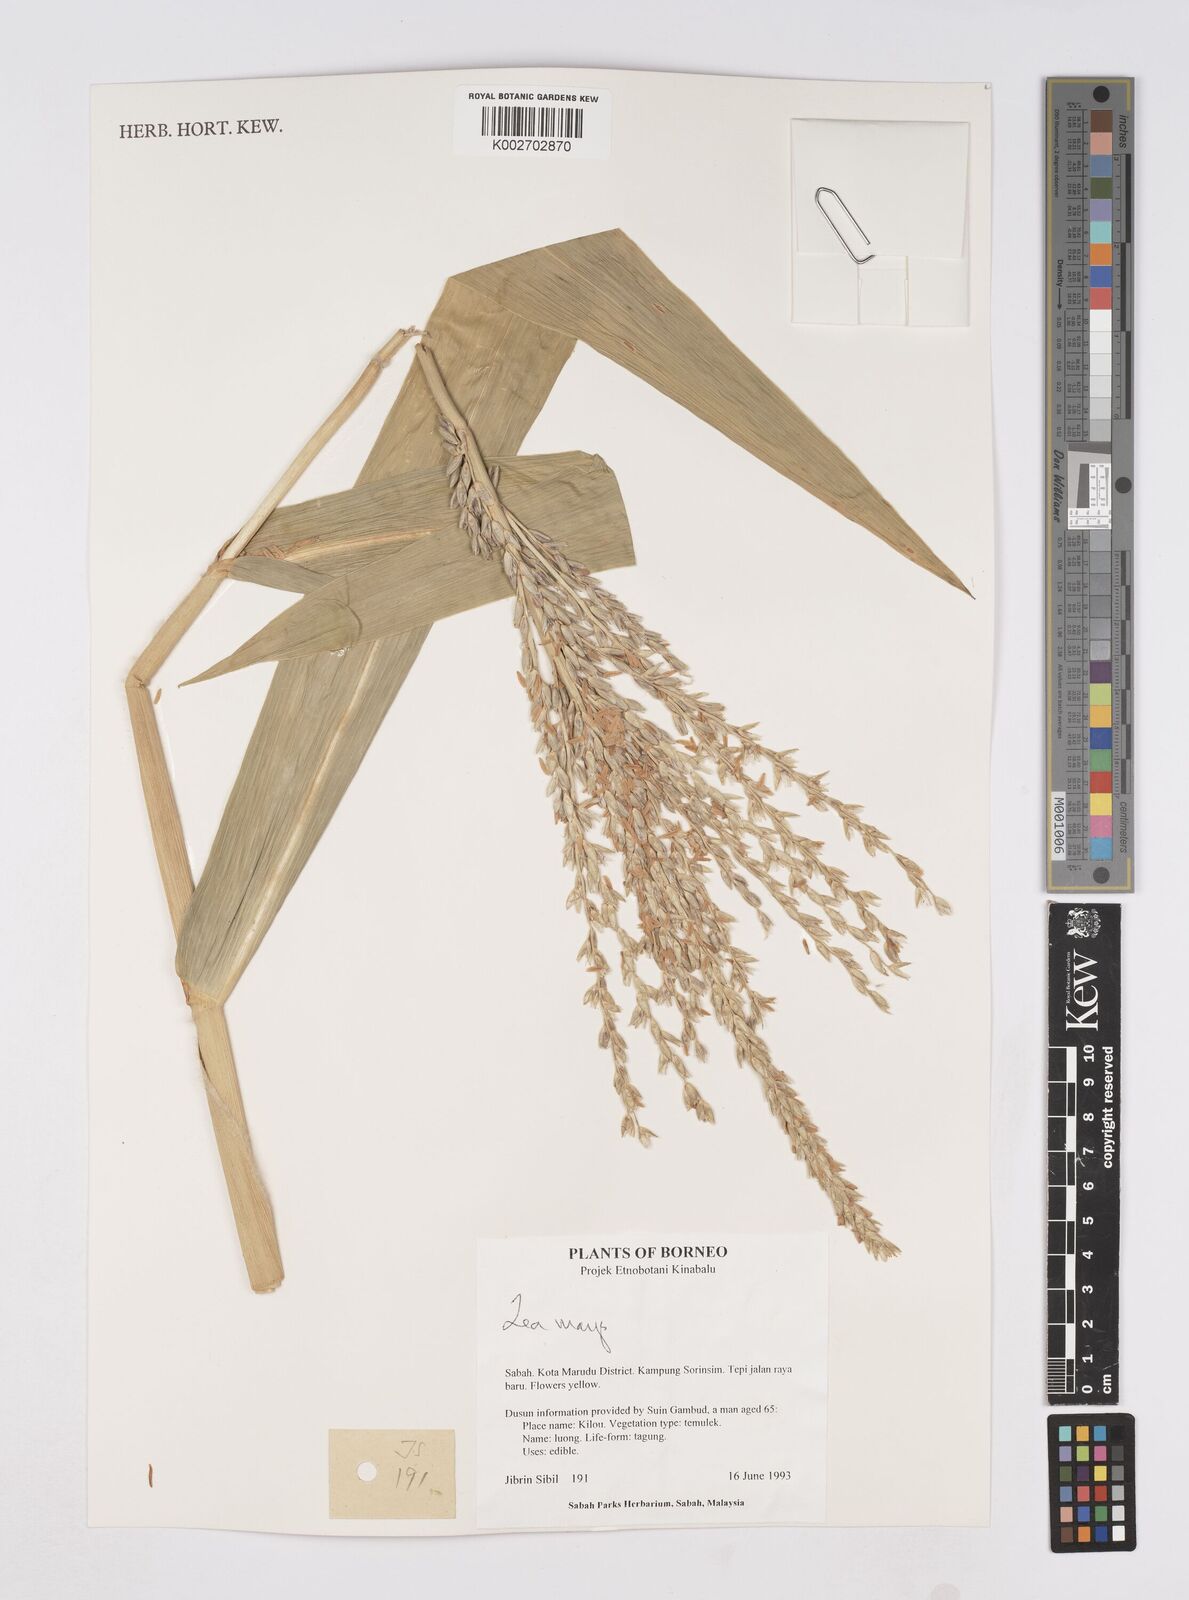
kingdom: Plantae
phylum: Tracheophyta
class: Liliopsida
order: Poales
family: Poaceae
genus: Zea
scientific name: Zea mays
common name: Maize
